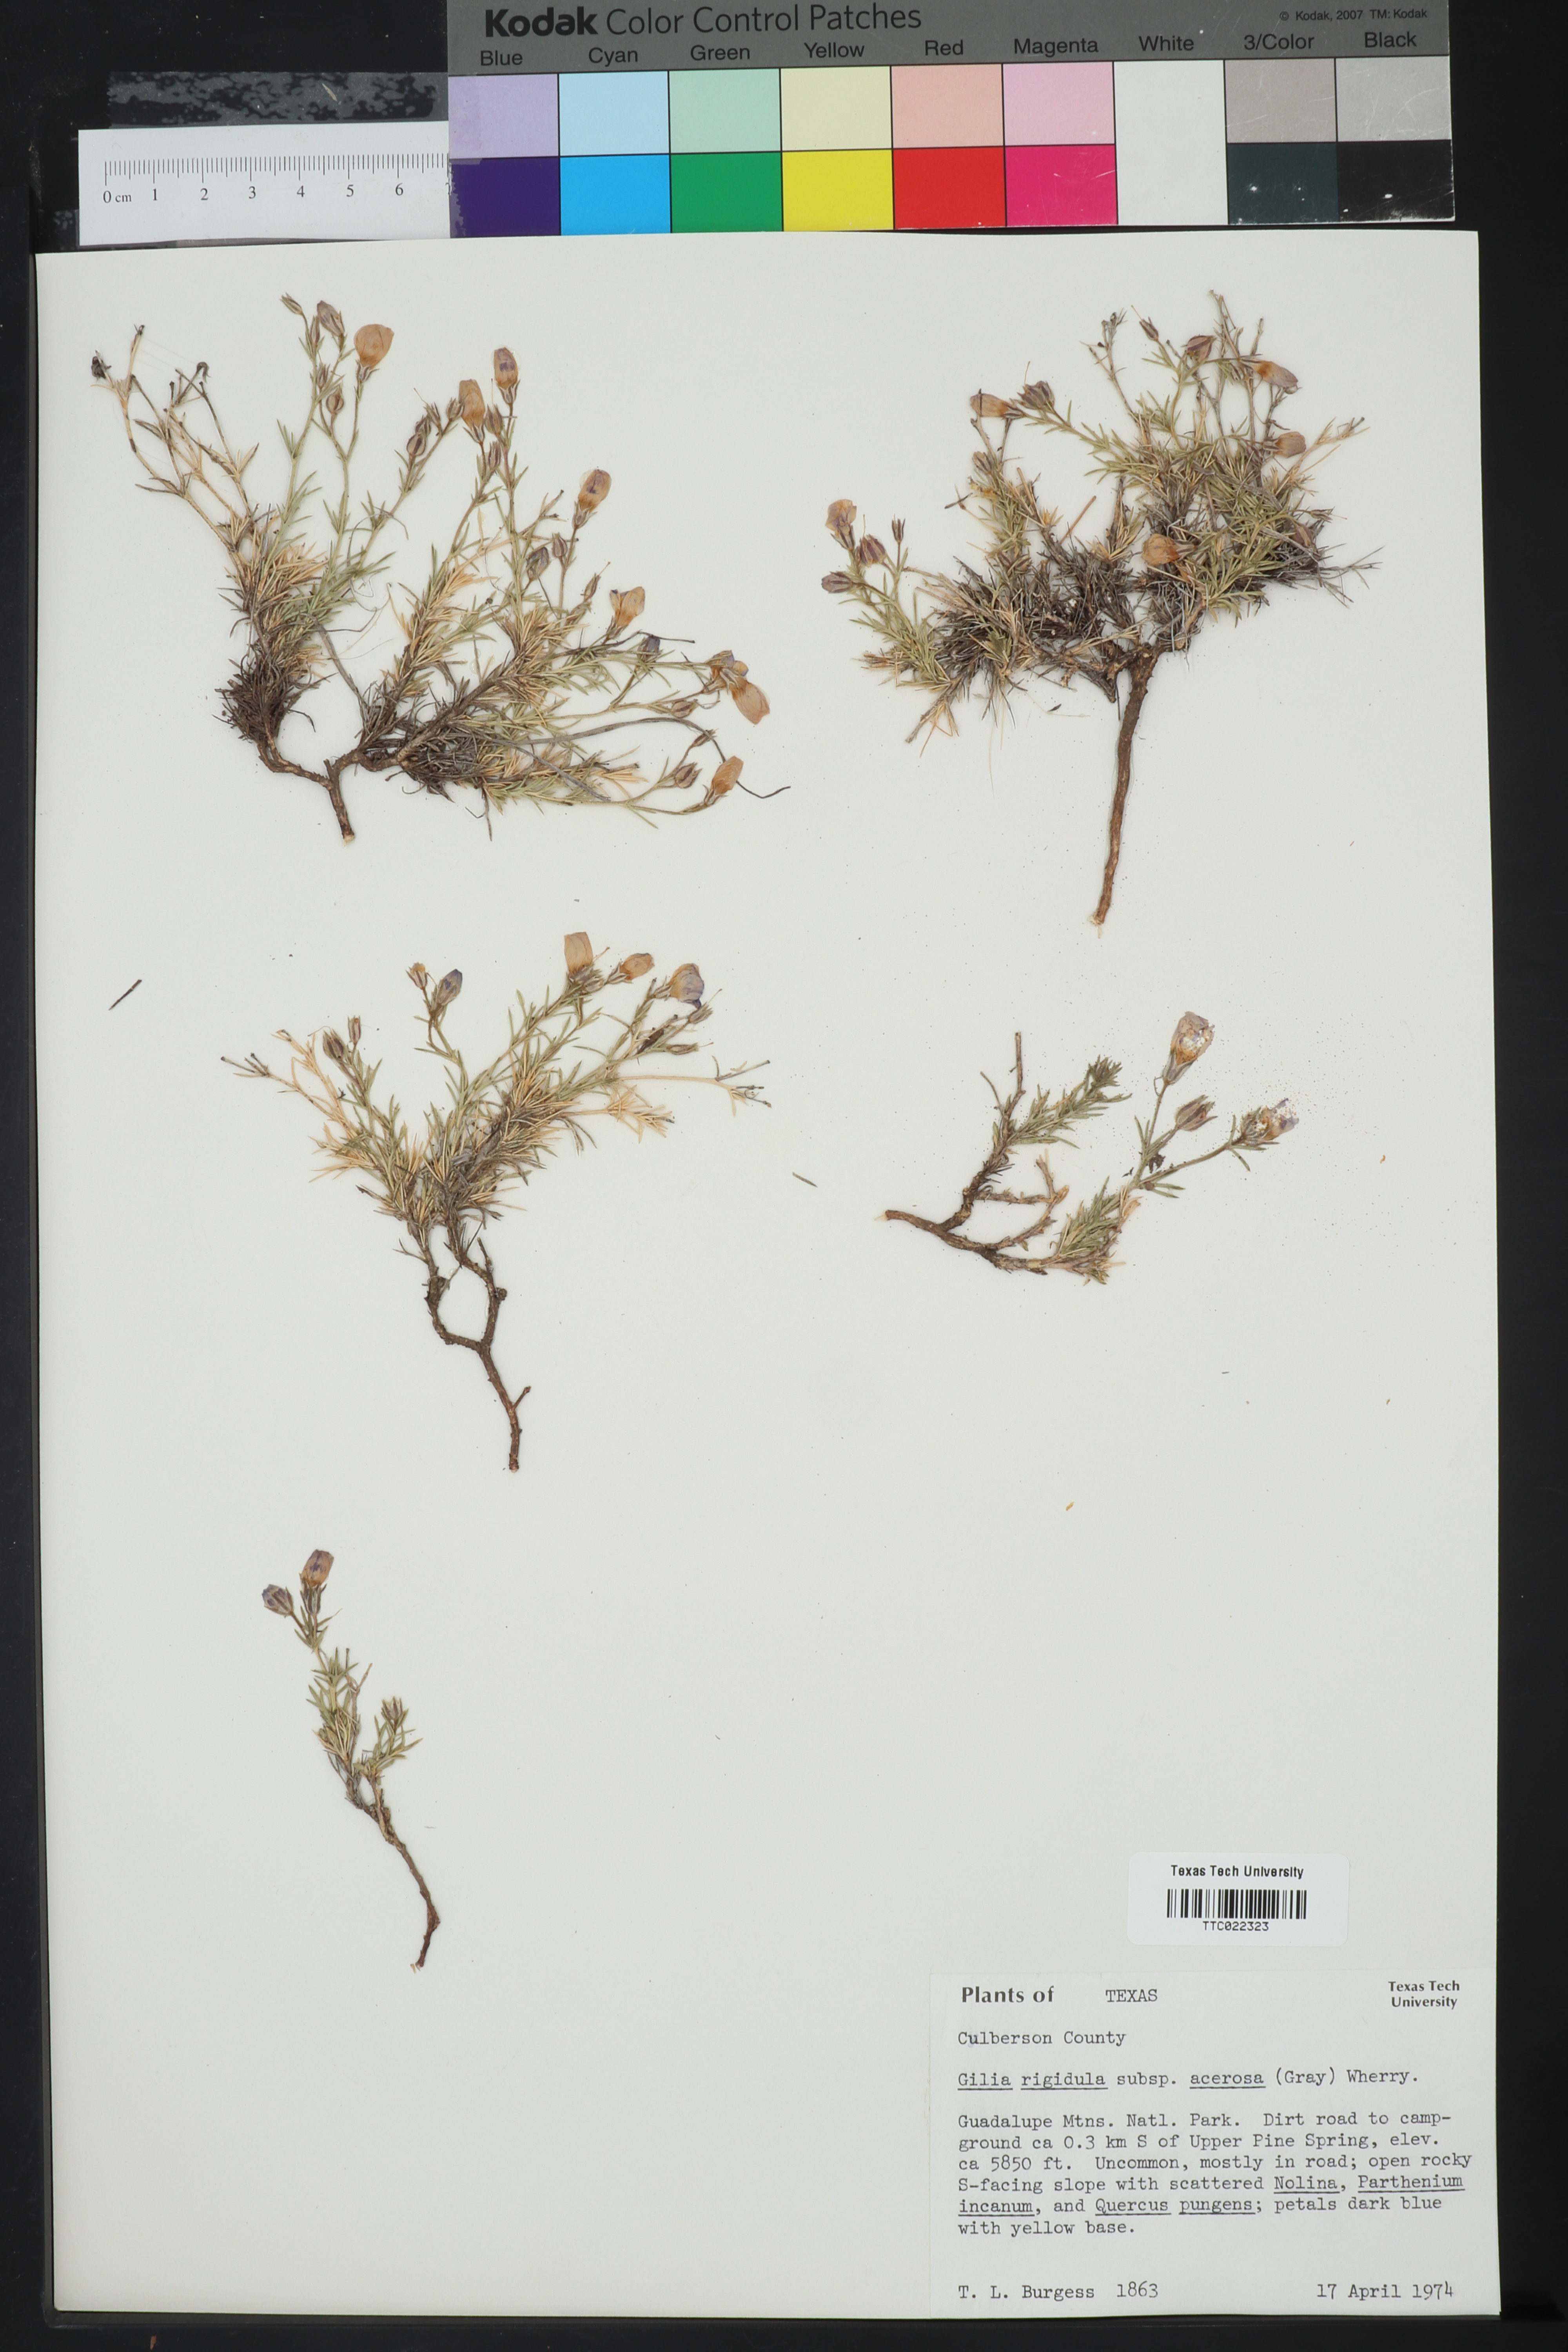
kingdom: Plantae
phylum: Tracheophyta
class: Magnoliopsida
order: Ericales
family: Polemoniaceae
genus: Giliastrum
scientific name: Giliastrum acerosum
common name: Bluebowls
